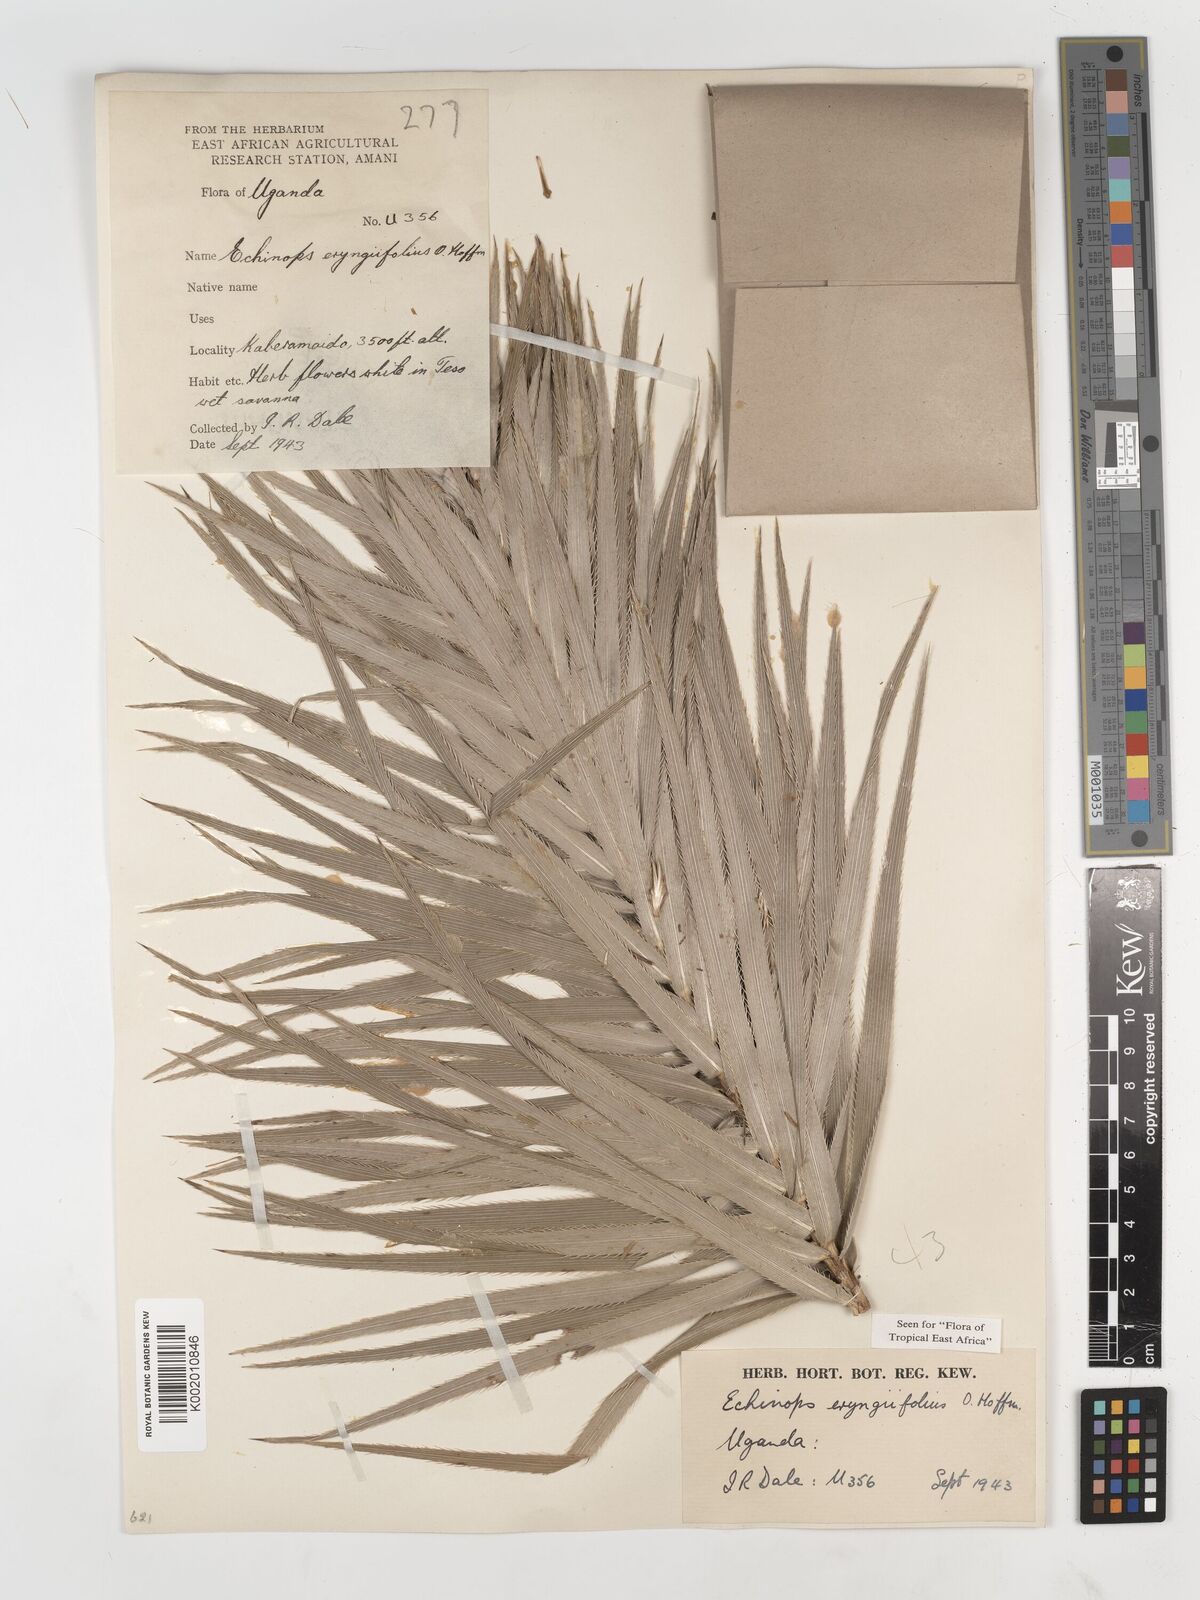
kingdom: Plantae
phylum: Tracheophyta
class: Magnoliopsida
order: Asterales
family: Asteraceae
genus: Echinops
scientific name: Echinops eryngiifolius
